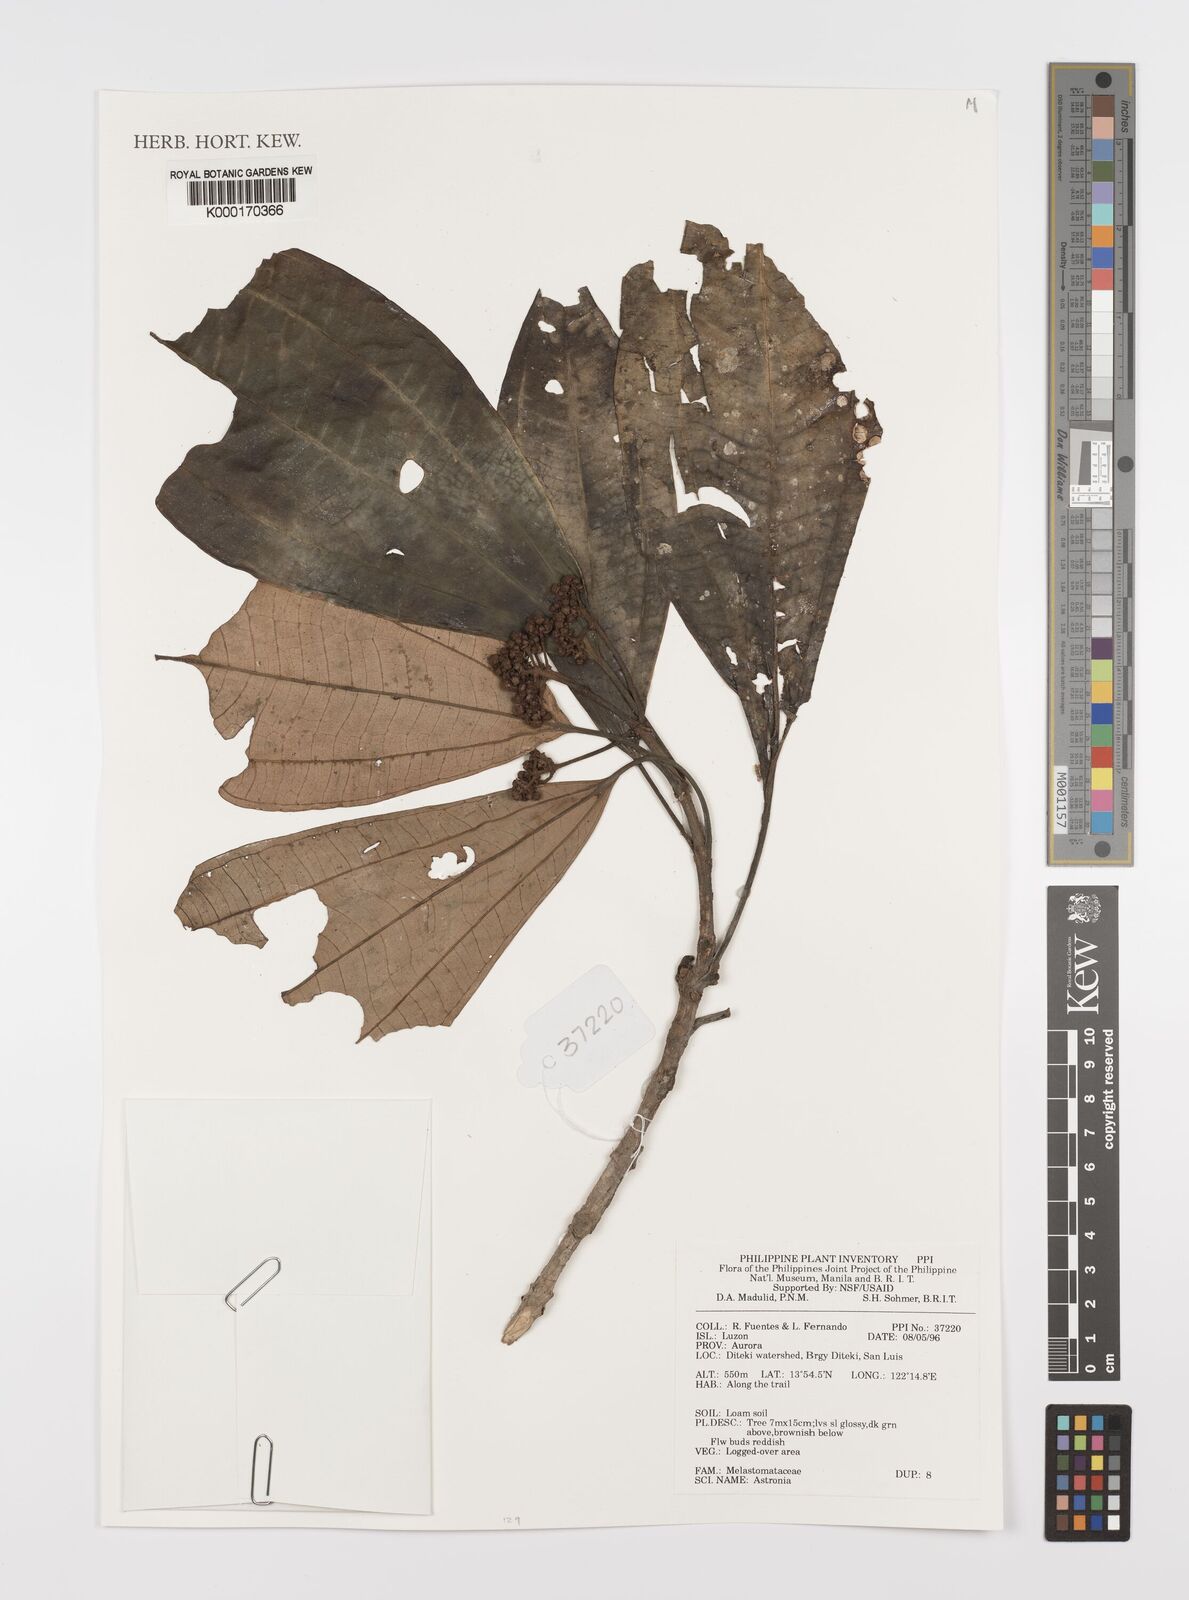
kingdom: Plantae
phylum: Tracheophyta
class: Magnoliopsida
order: Myrtales
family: Melastomataceae
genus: Astronia
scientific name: Astronia
